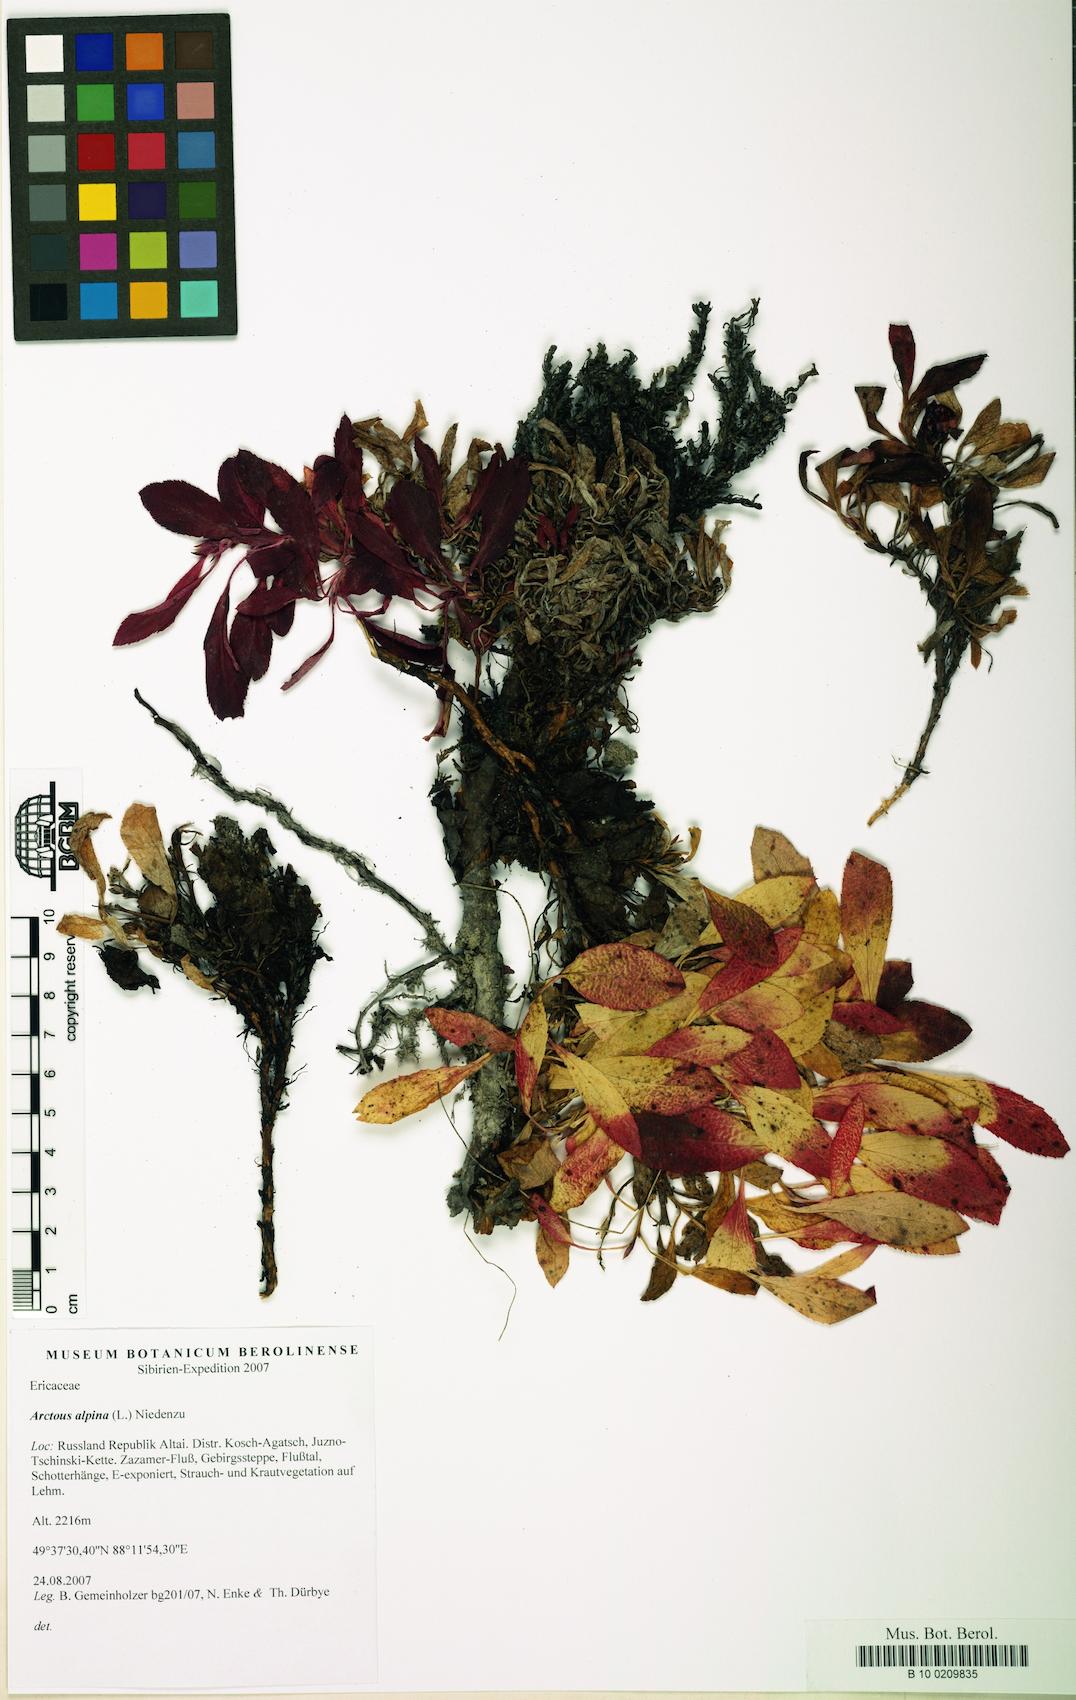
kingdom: Plantae
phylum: Tracheophyta
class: Magnoliopsida
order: Ericales
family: Ericaceae
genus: Arctostaphylos
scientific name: Arctostaphylos alpinus
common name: Alpine bearberry
